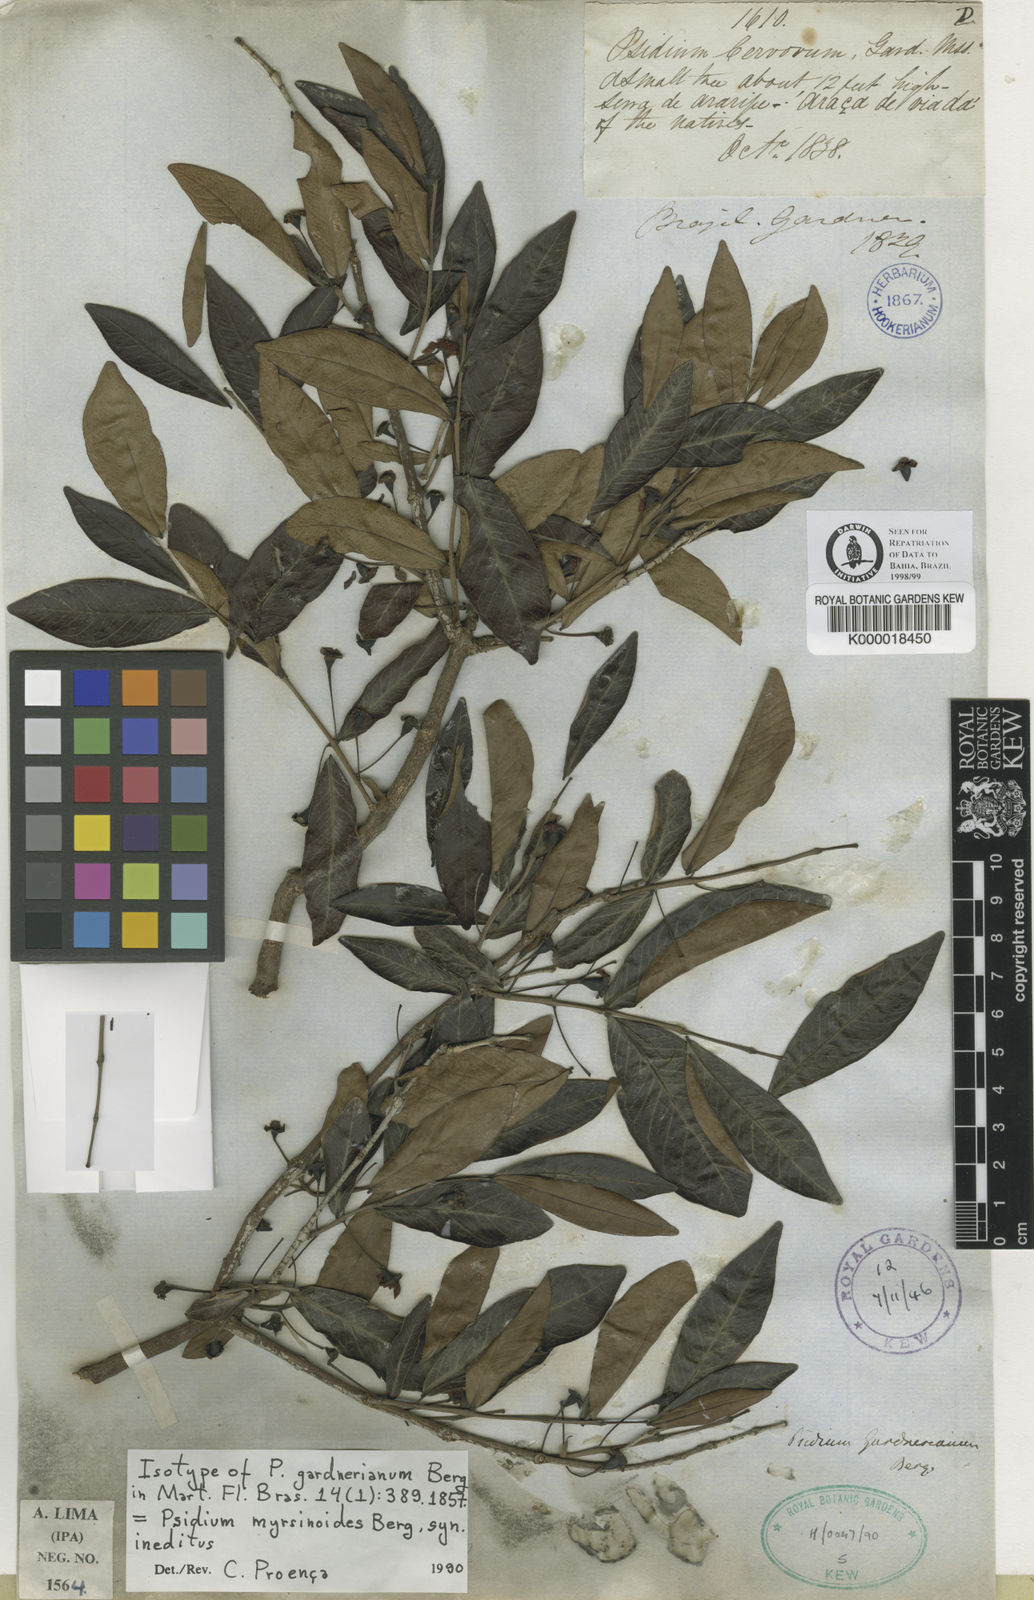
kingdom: Plantae
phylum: Tracheophyta
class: Magnoliopsida
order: Myrtales
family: Myrtaceae
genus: Psidium
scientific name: Psidium myrtoides
